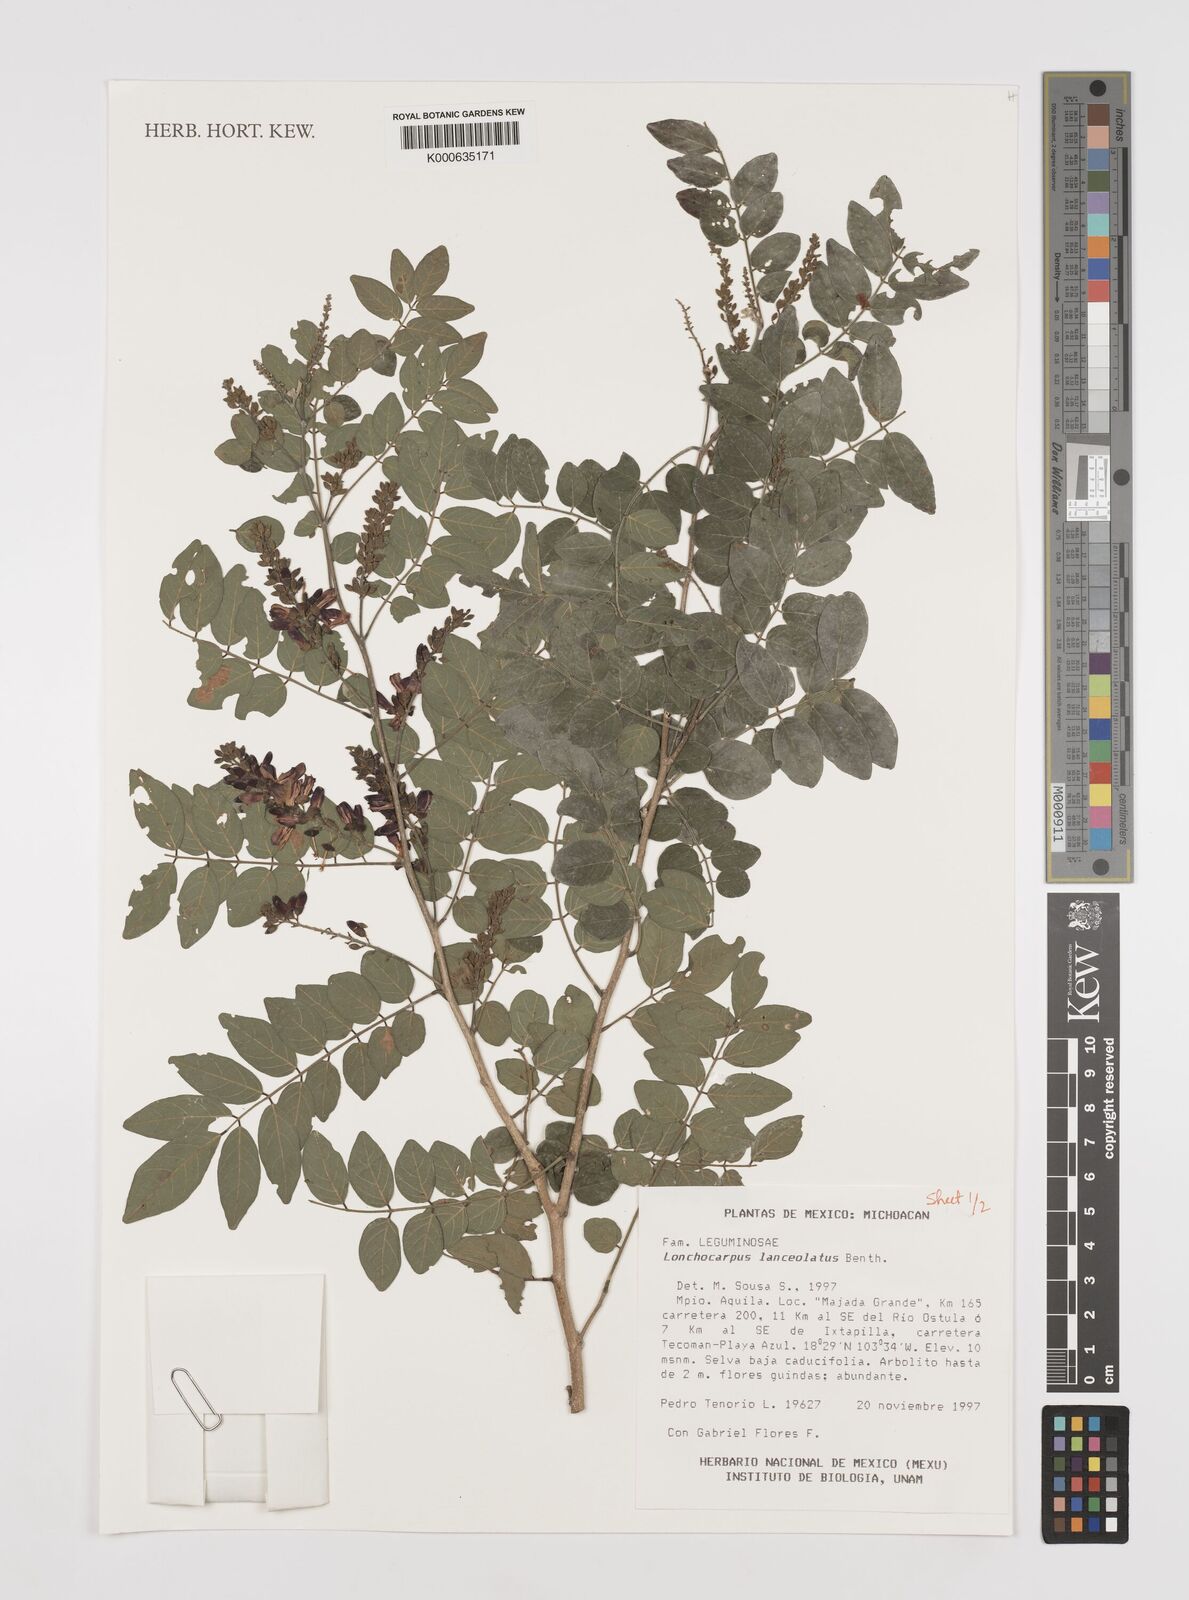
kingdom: Plantae
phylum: Tracheophyta
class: Magnoliopsida
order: Fabales
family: Fabaceae
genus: Lonchocarpus
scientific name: Lonchocarpus lanceolatus
